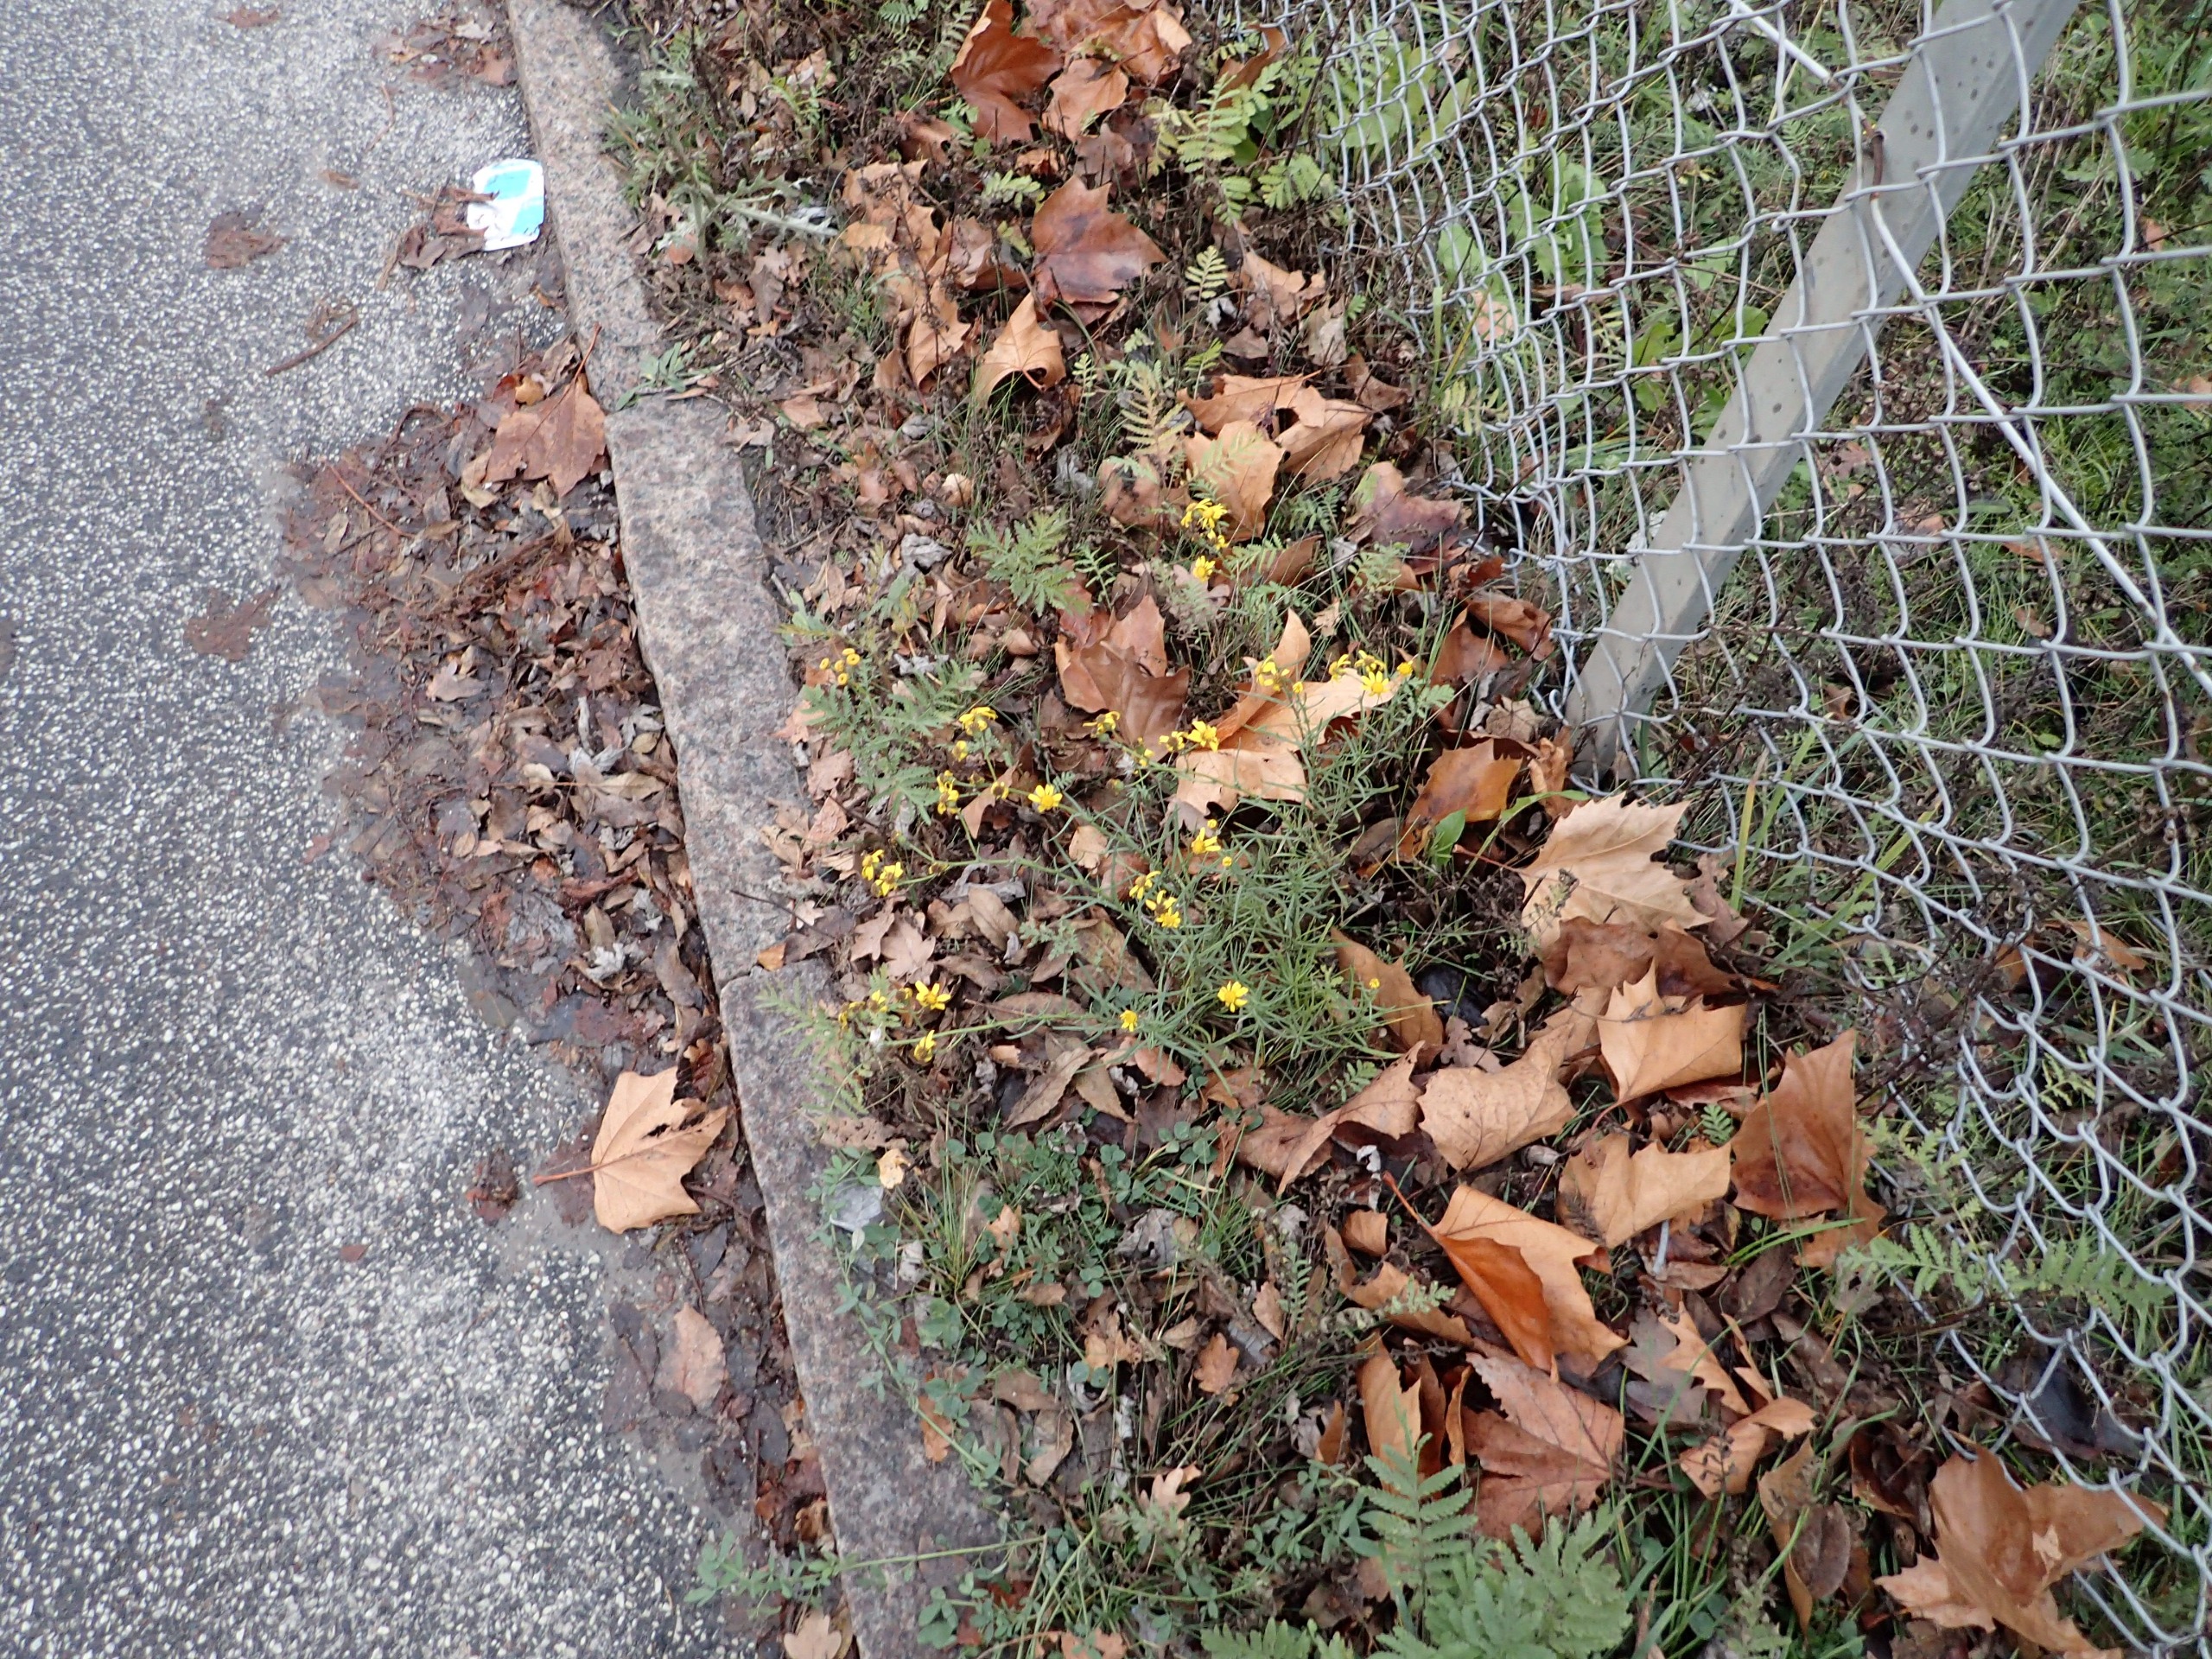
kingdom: Plantae
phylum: Tracheophyta
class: Magnoliopsida
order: Asterales
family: Asteraceae
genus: Senecio
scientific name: Senecio inaequidens
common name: Smalbladet brandbæger
